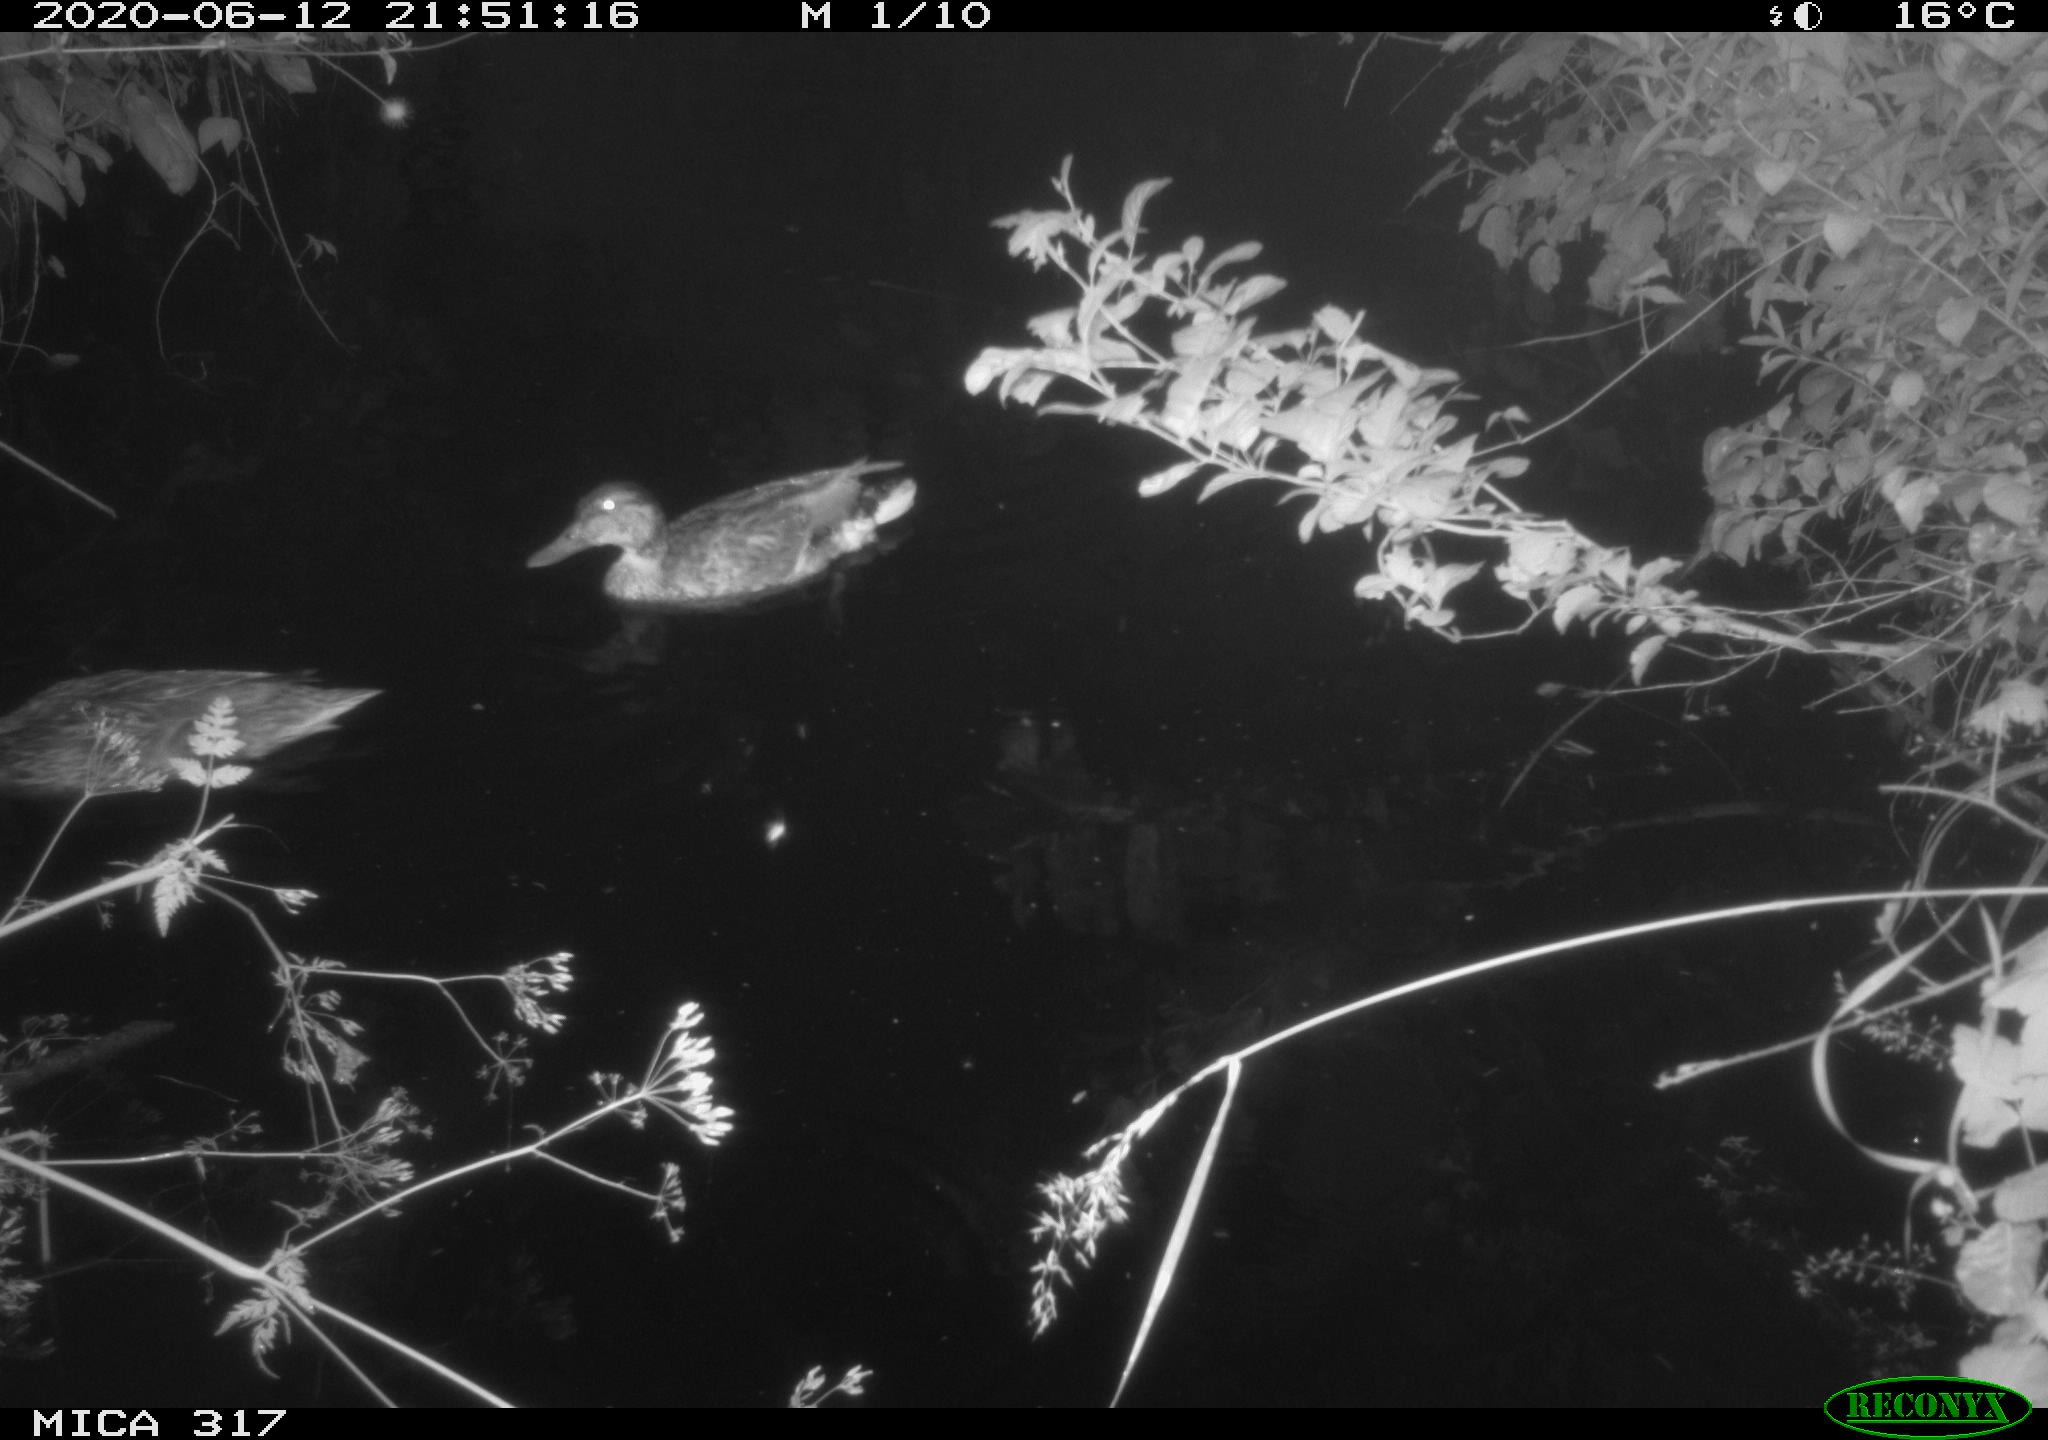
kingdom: Animalia
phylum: Chordata
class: Aves
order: Anseriformes
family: Anatidae
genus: Anas
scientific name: Anas platyrhynchos
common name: Mallard
